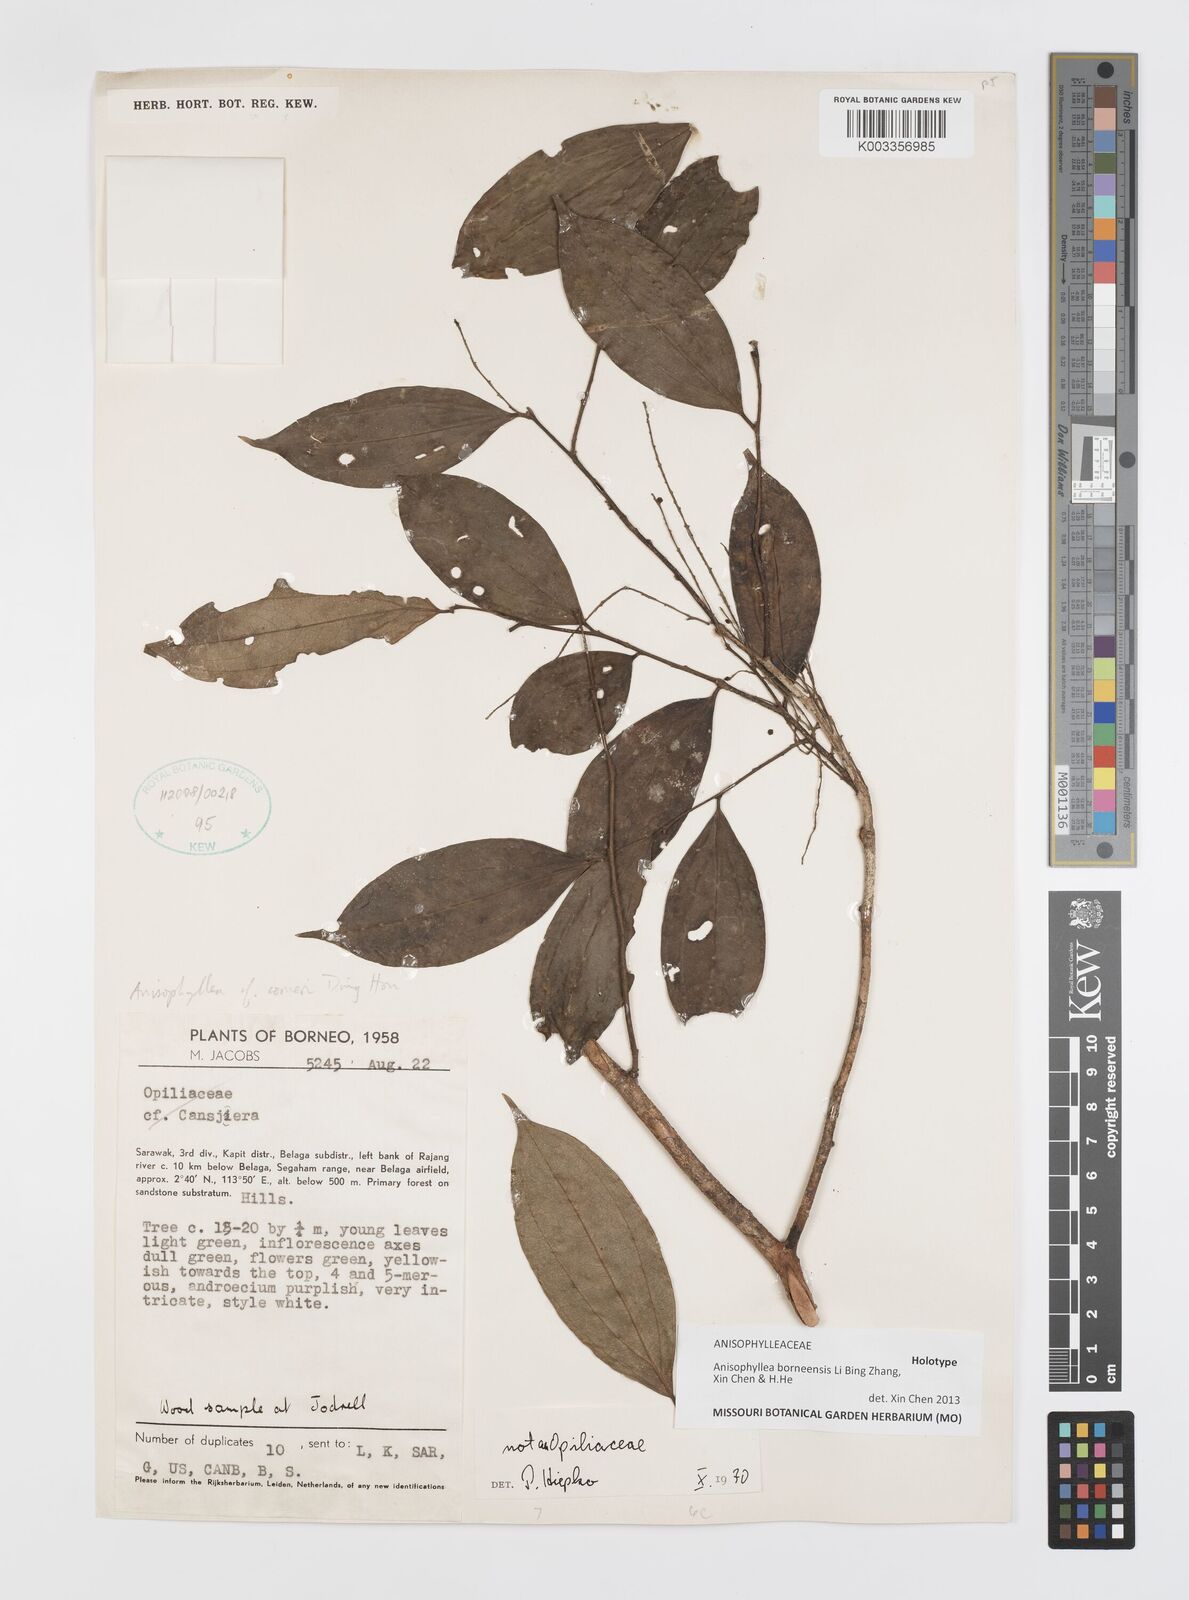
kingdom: Plantae
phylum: Tracheophyta
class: Magnoliopsida
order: Cucurbitales
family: Anisophylleaceae
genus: Anisophyllea
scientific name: Anisophyllea borneensis
